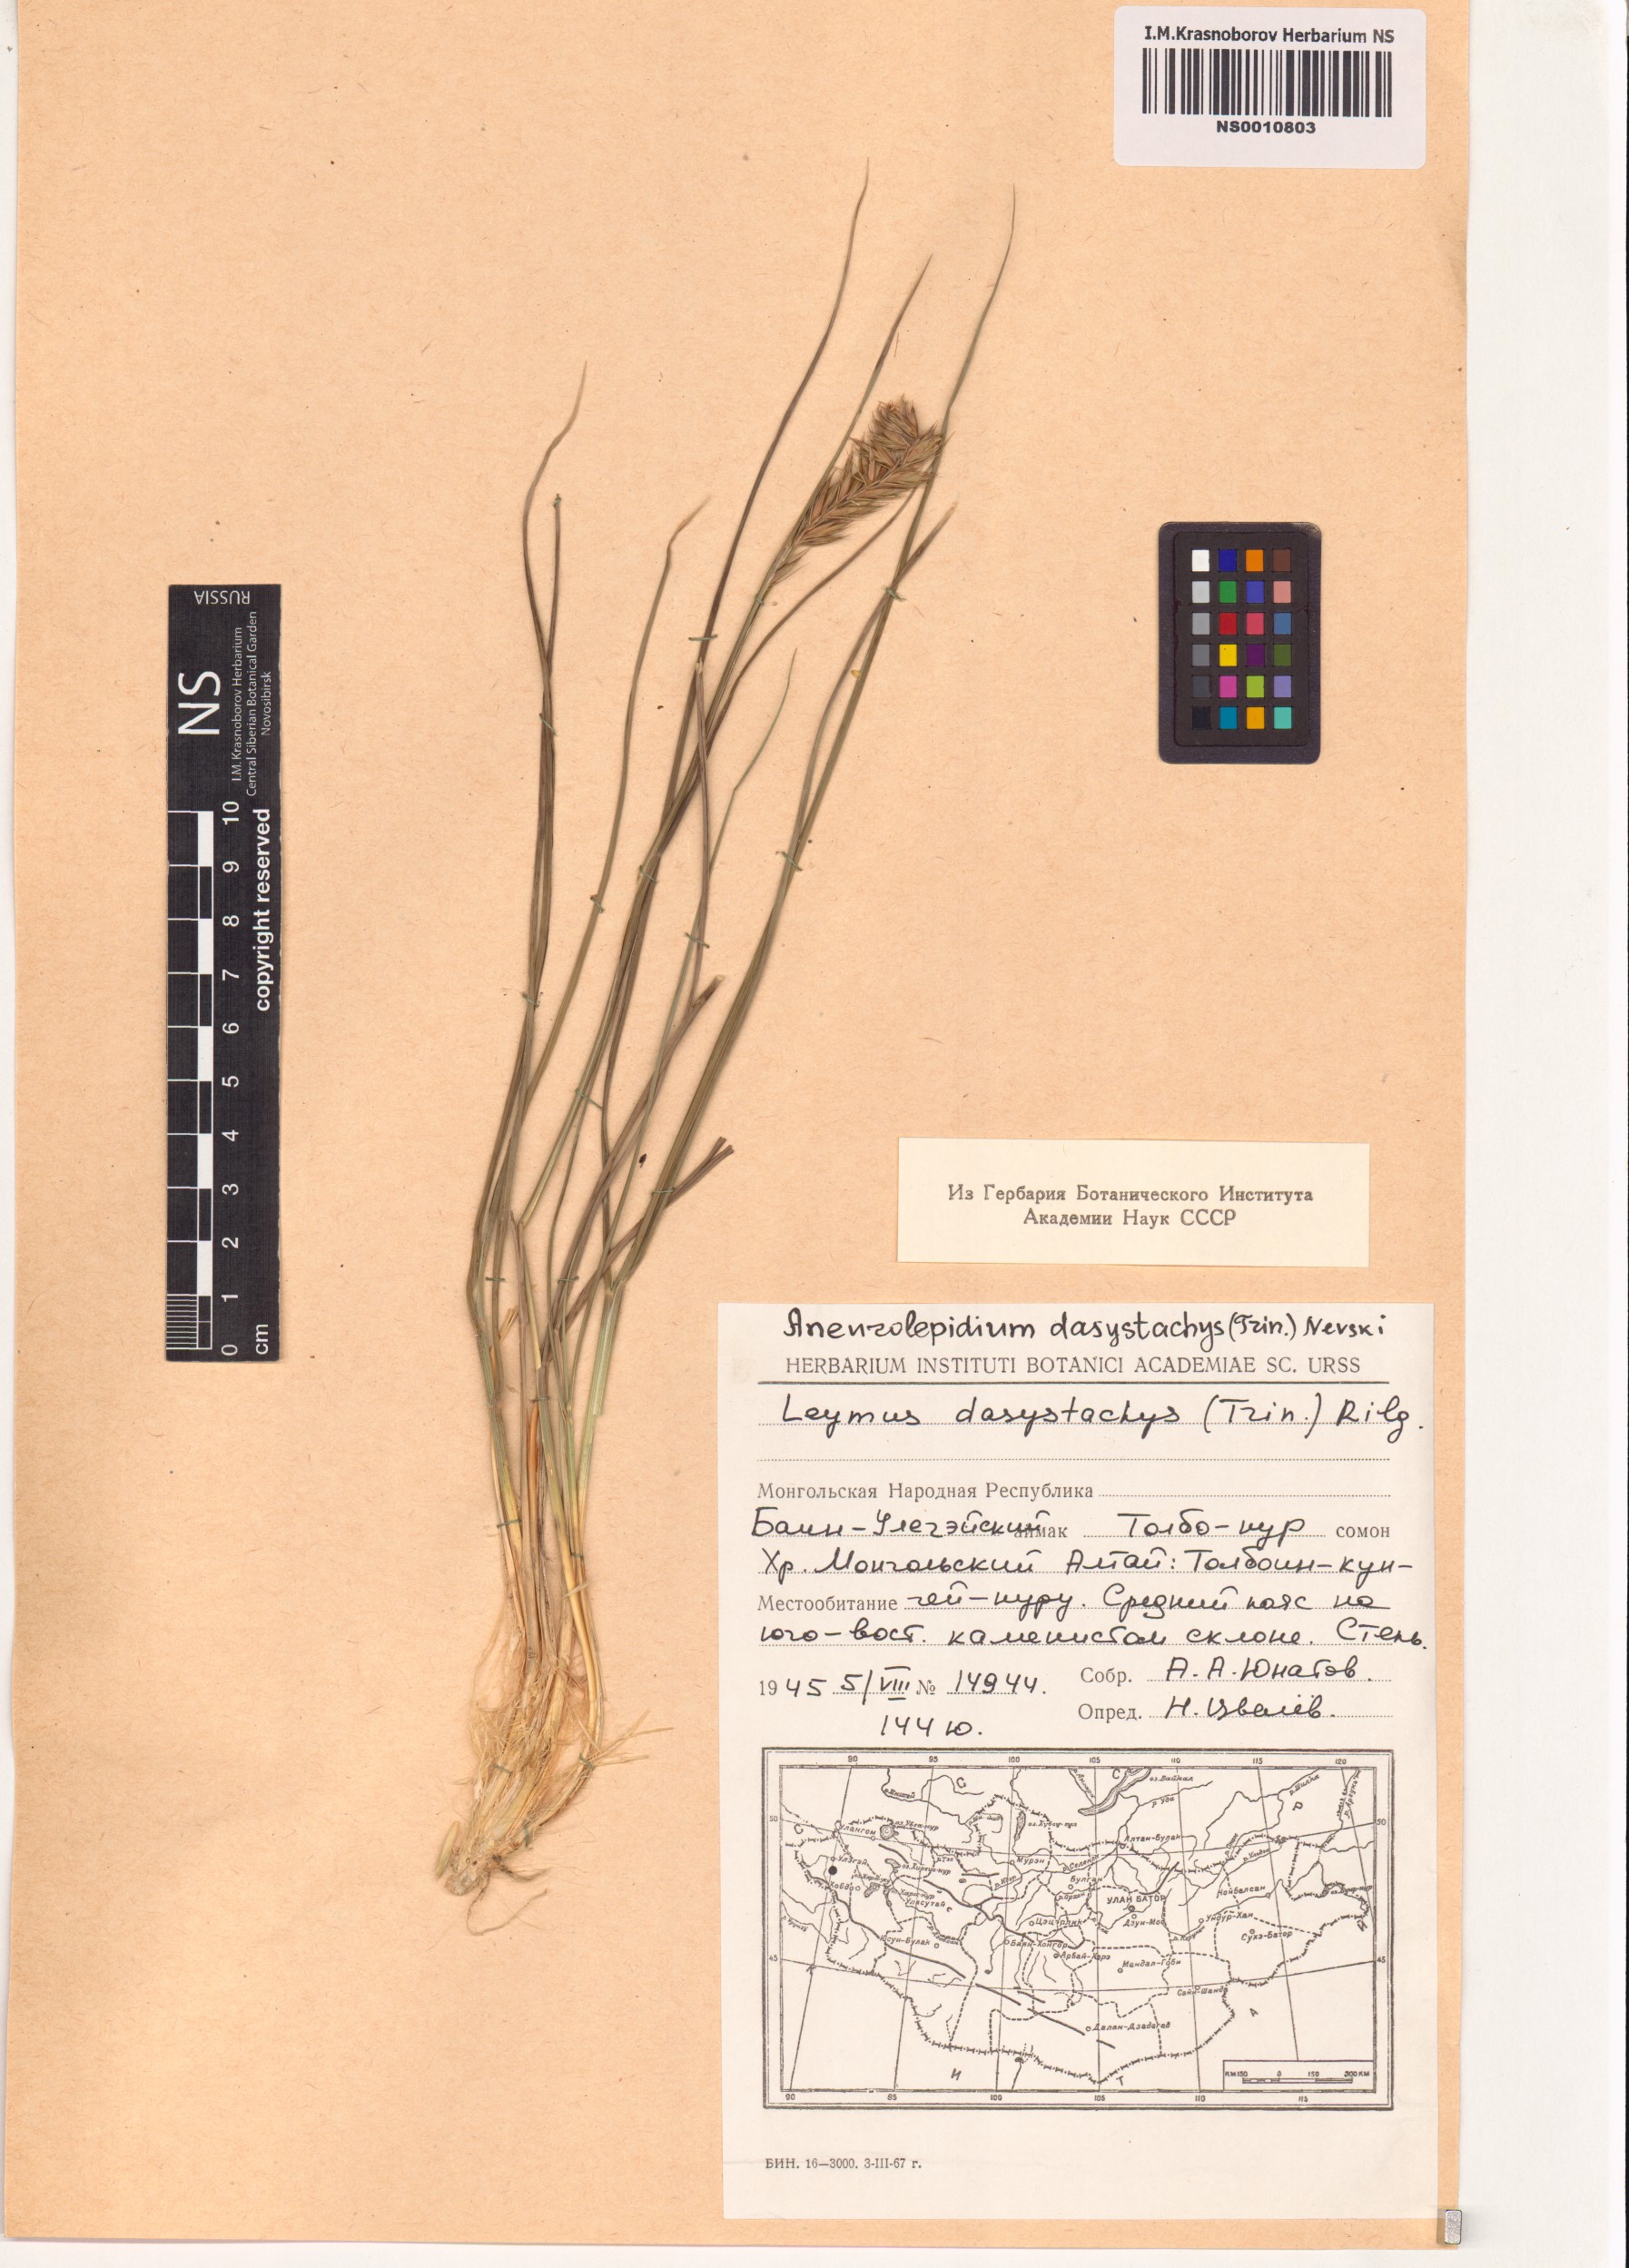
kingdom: Plantae
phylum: Tracheophyta
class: Liliopsida
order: Poales
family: Poaceae
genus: Leymus
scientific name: Leymus secalinus
